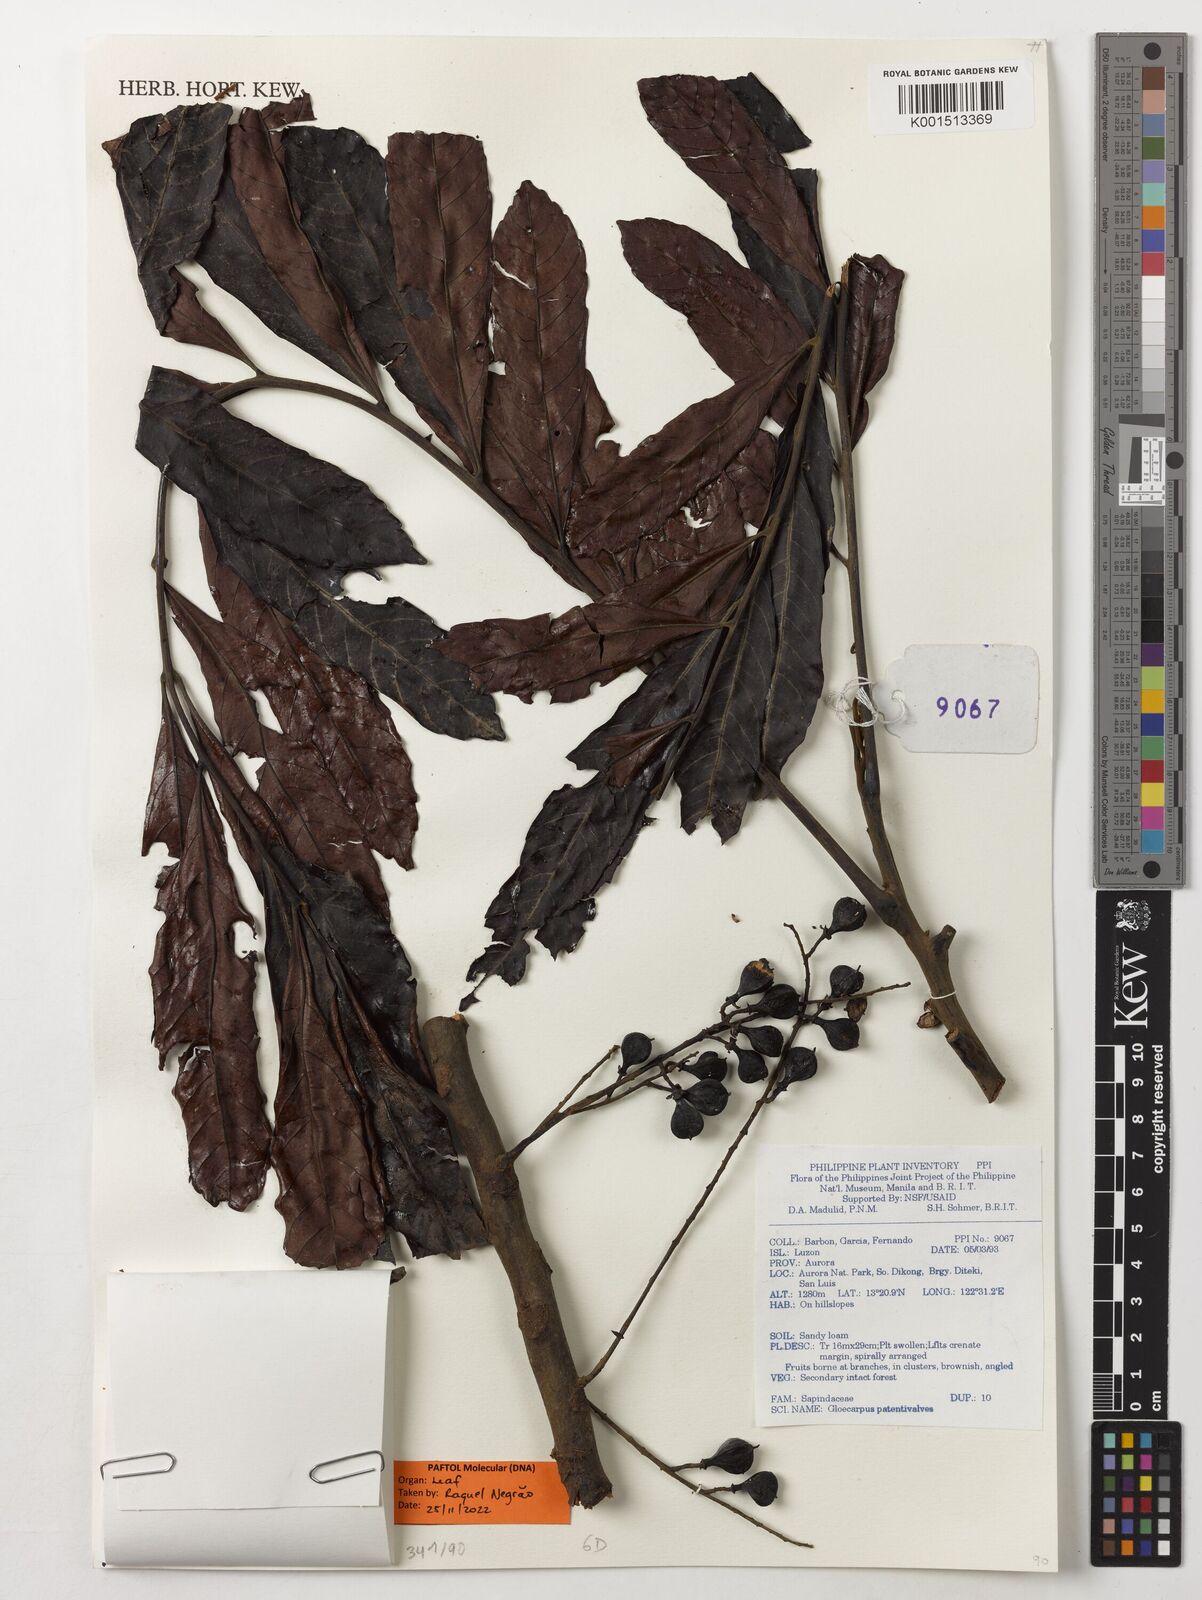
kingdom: Plantae
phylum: Tracheophyta
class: Magnoliopsida
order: Sapindales
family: Sapindaceae
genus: Gloeocarpus
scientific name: Gloeocarpus patentivalvis
